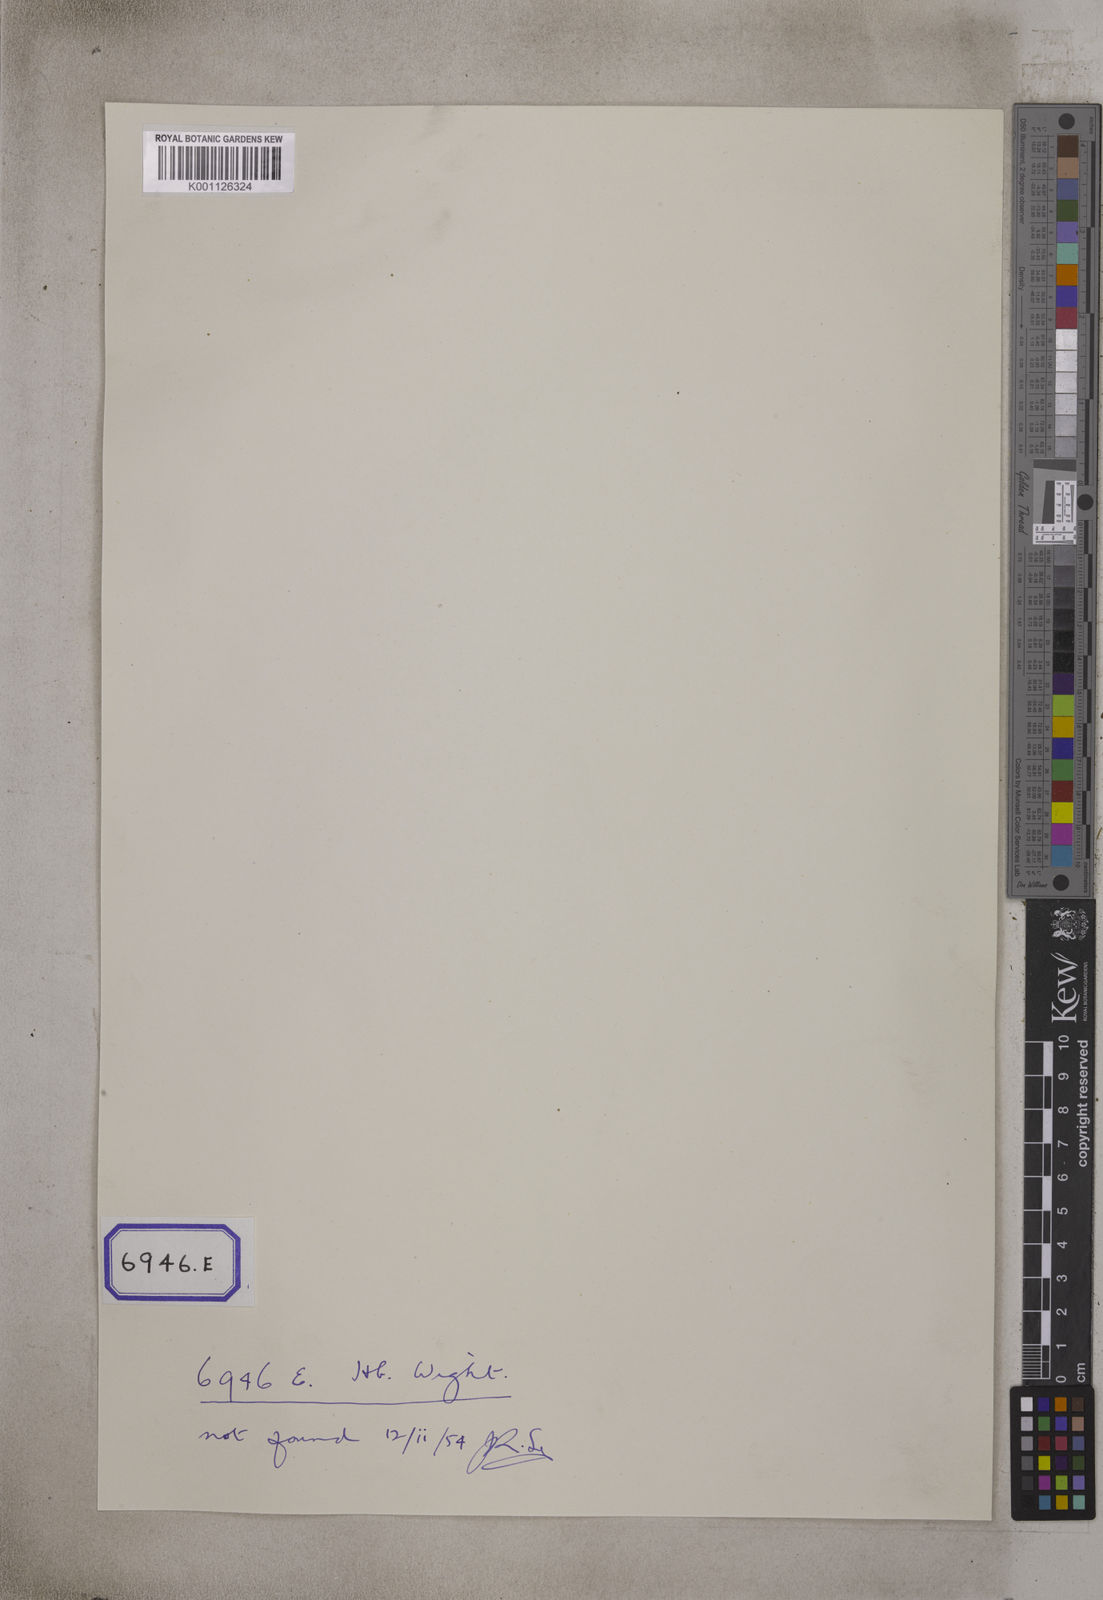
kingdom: Plantae
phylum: Tracheophyta
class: Magnoliopsida
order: Caryophyllales
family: Amaranthaceae
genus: Suaeda
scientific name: Suaeda vermiculata
